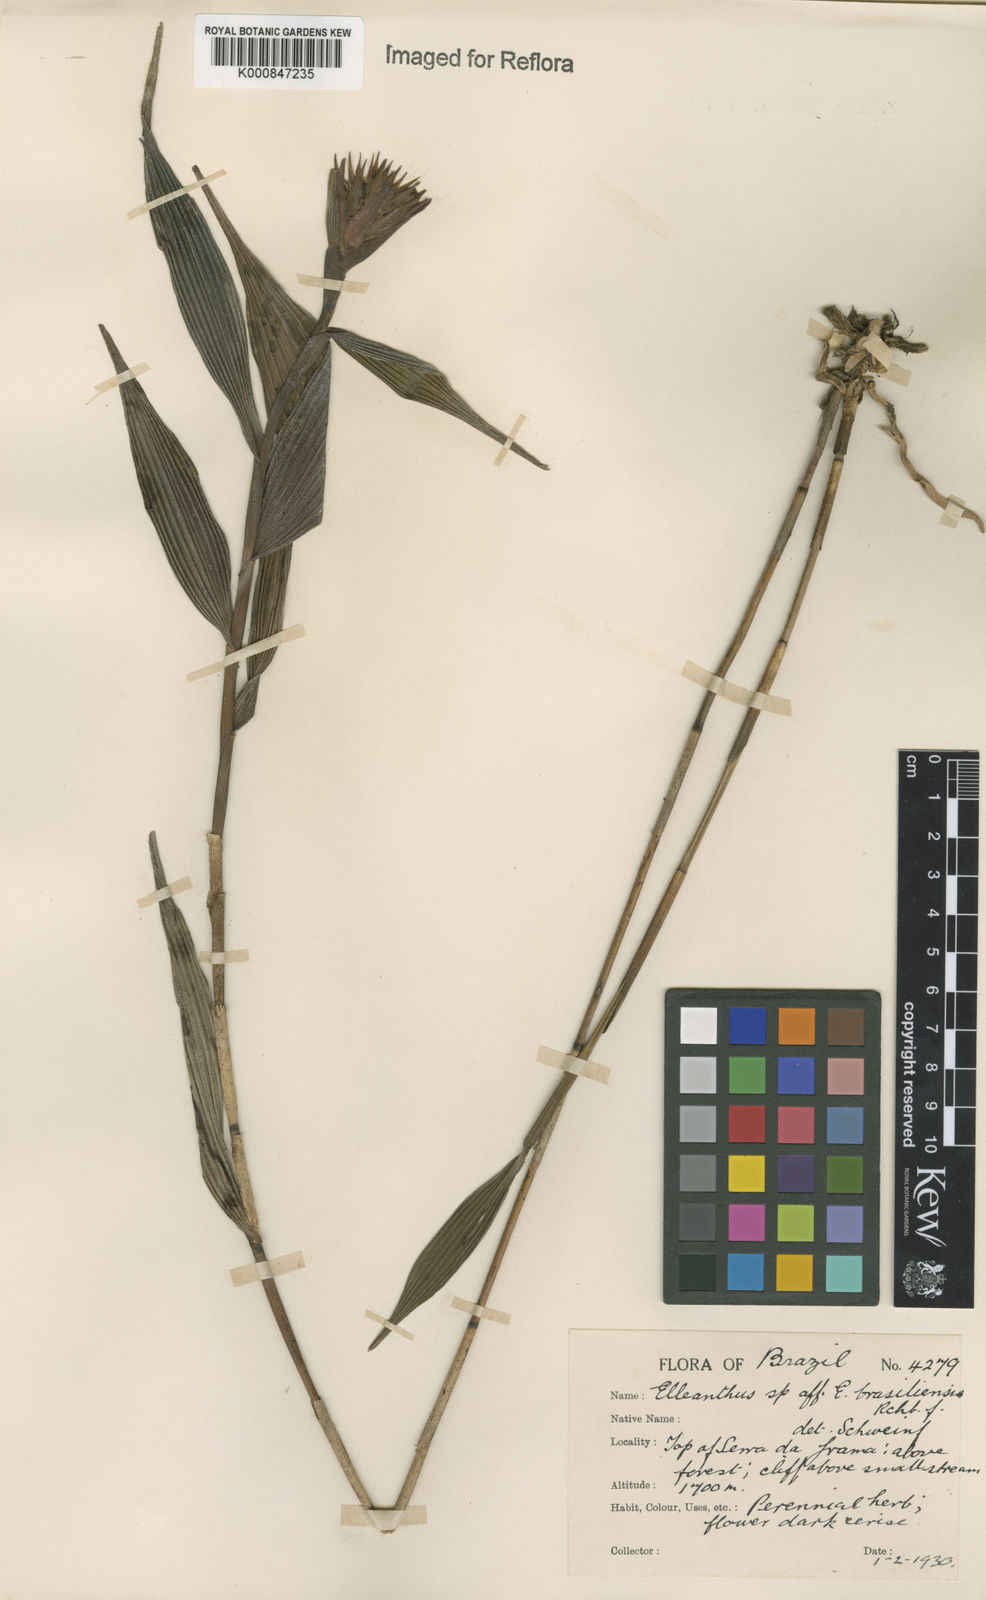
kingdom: Plantae
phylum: Tracheophyta
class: Liliopsida
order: Asparagales
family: Orchidaceae
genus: Elleanthus
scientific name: Elleanthus brasiliensis
